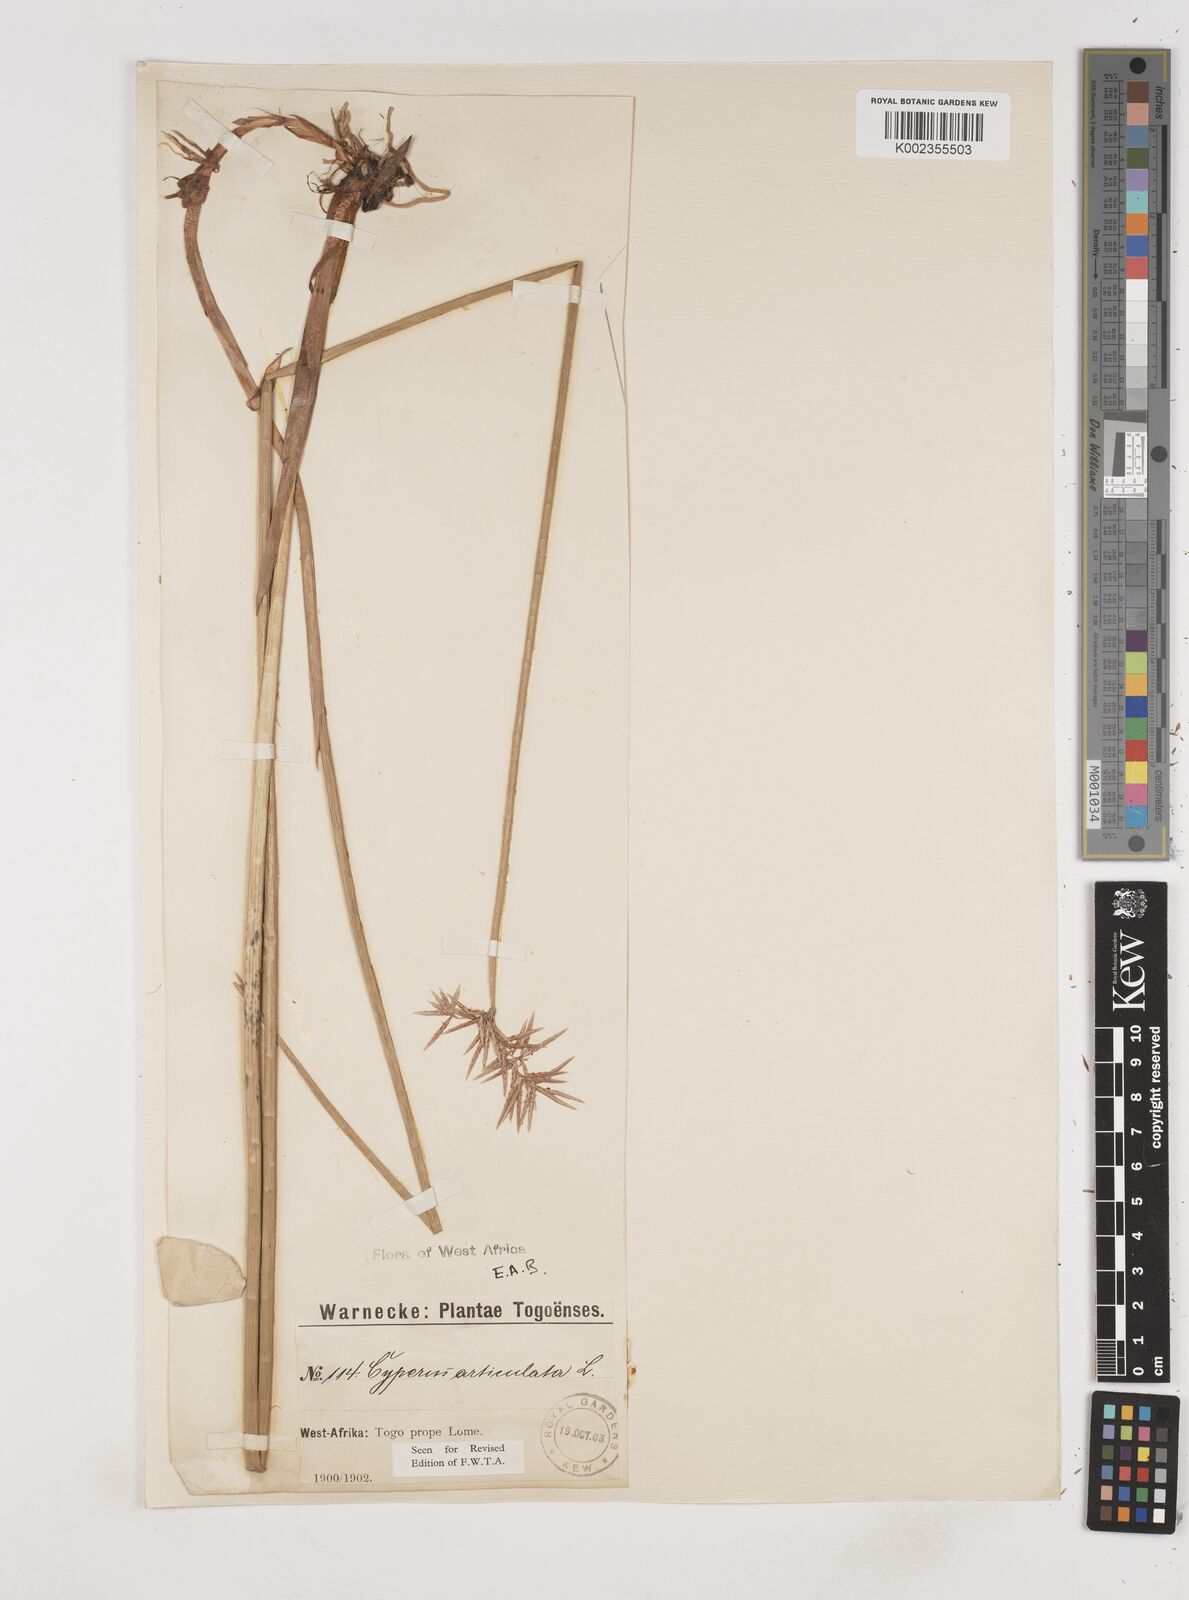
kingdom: Plantae
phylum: Tracheophyta
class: Liliopsida
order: Poales
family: Cyperaceae
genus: Cyperus
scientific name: Cyperus articulatus
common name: Jointed flatsedge
